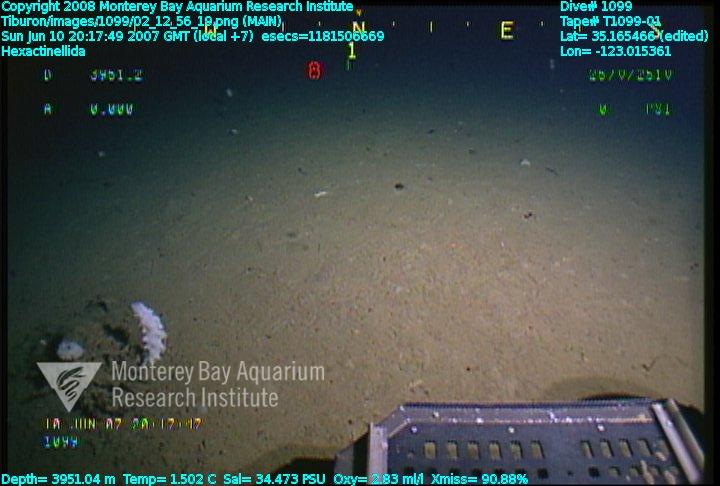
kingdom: Animalia
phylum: Porifera
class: Hexactinellida
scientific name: Hexactinellida
